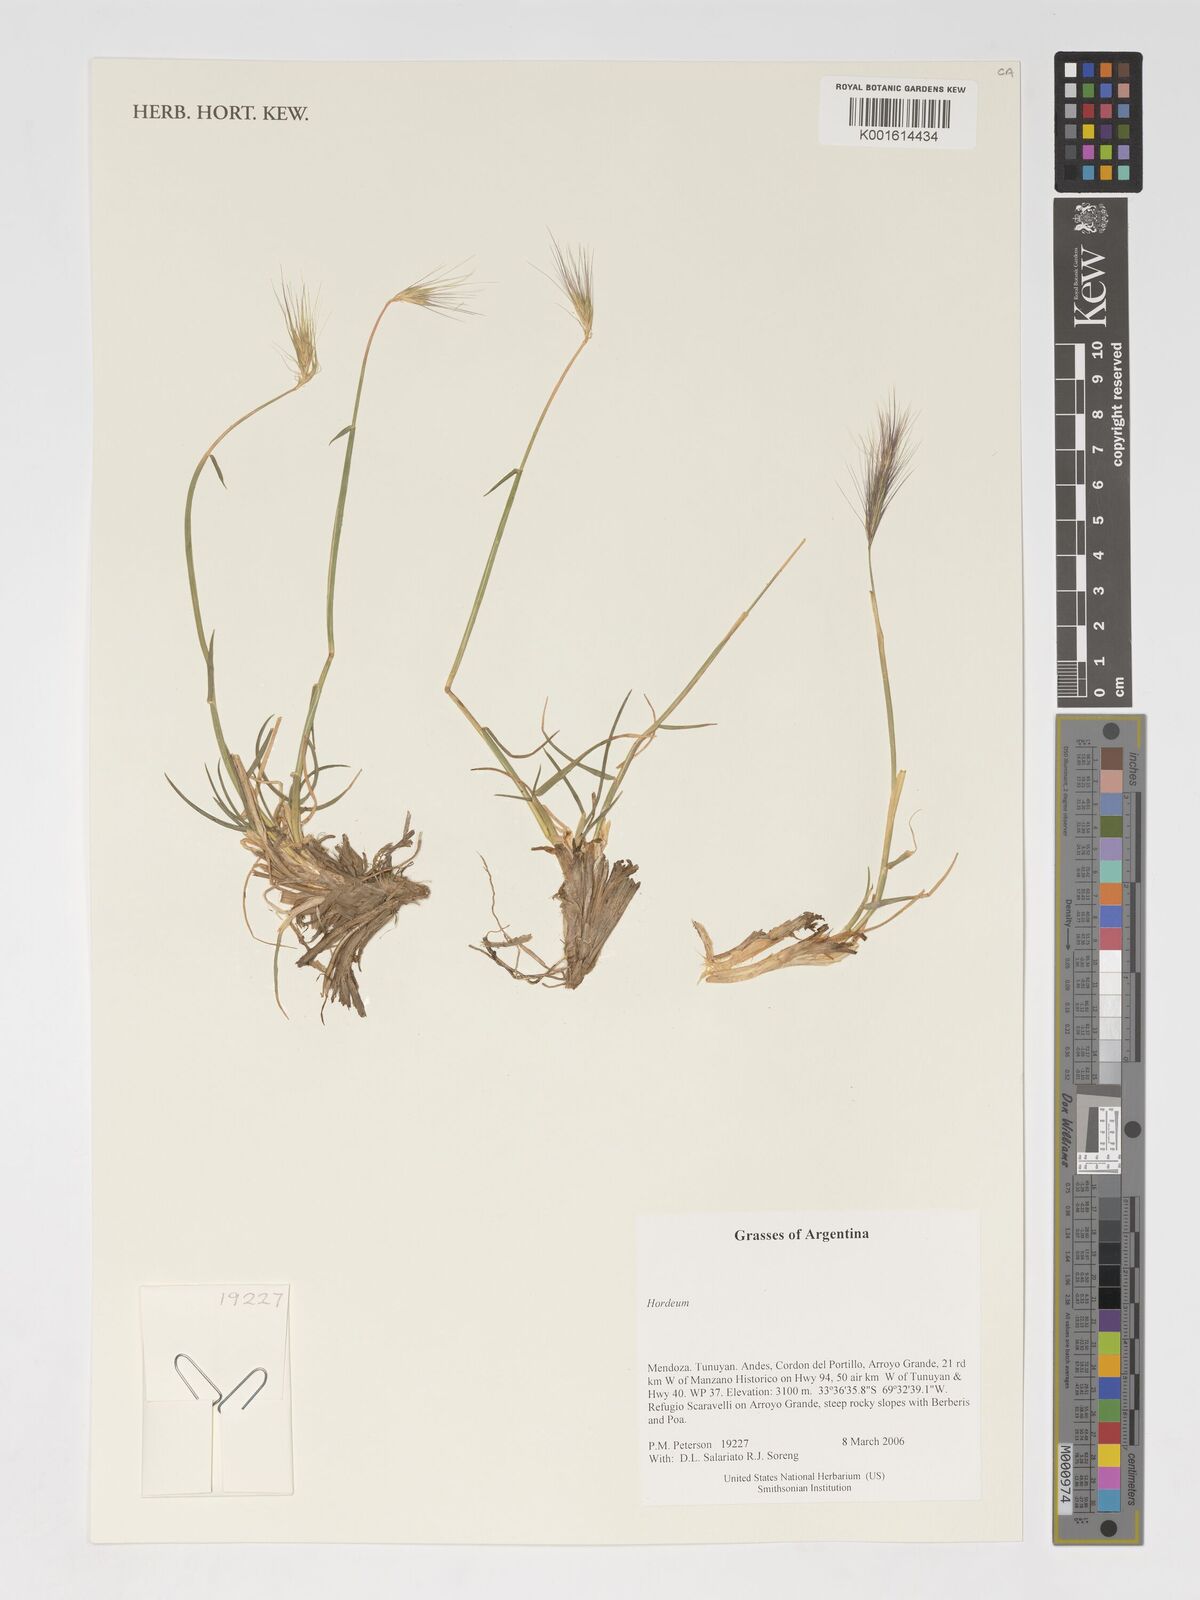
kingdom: Plantae
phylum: Tracheophyta
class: Liliopsida
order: Poales
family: Poaceae
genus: Hordeum
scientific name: Hordeum
